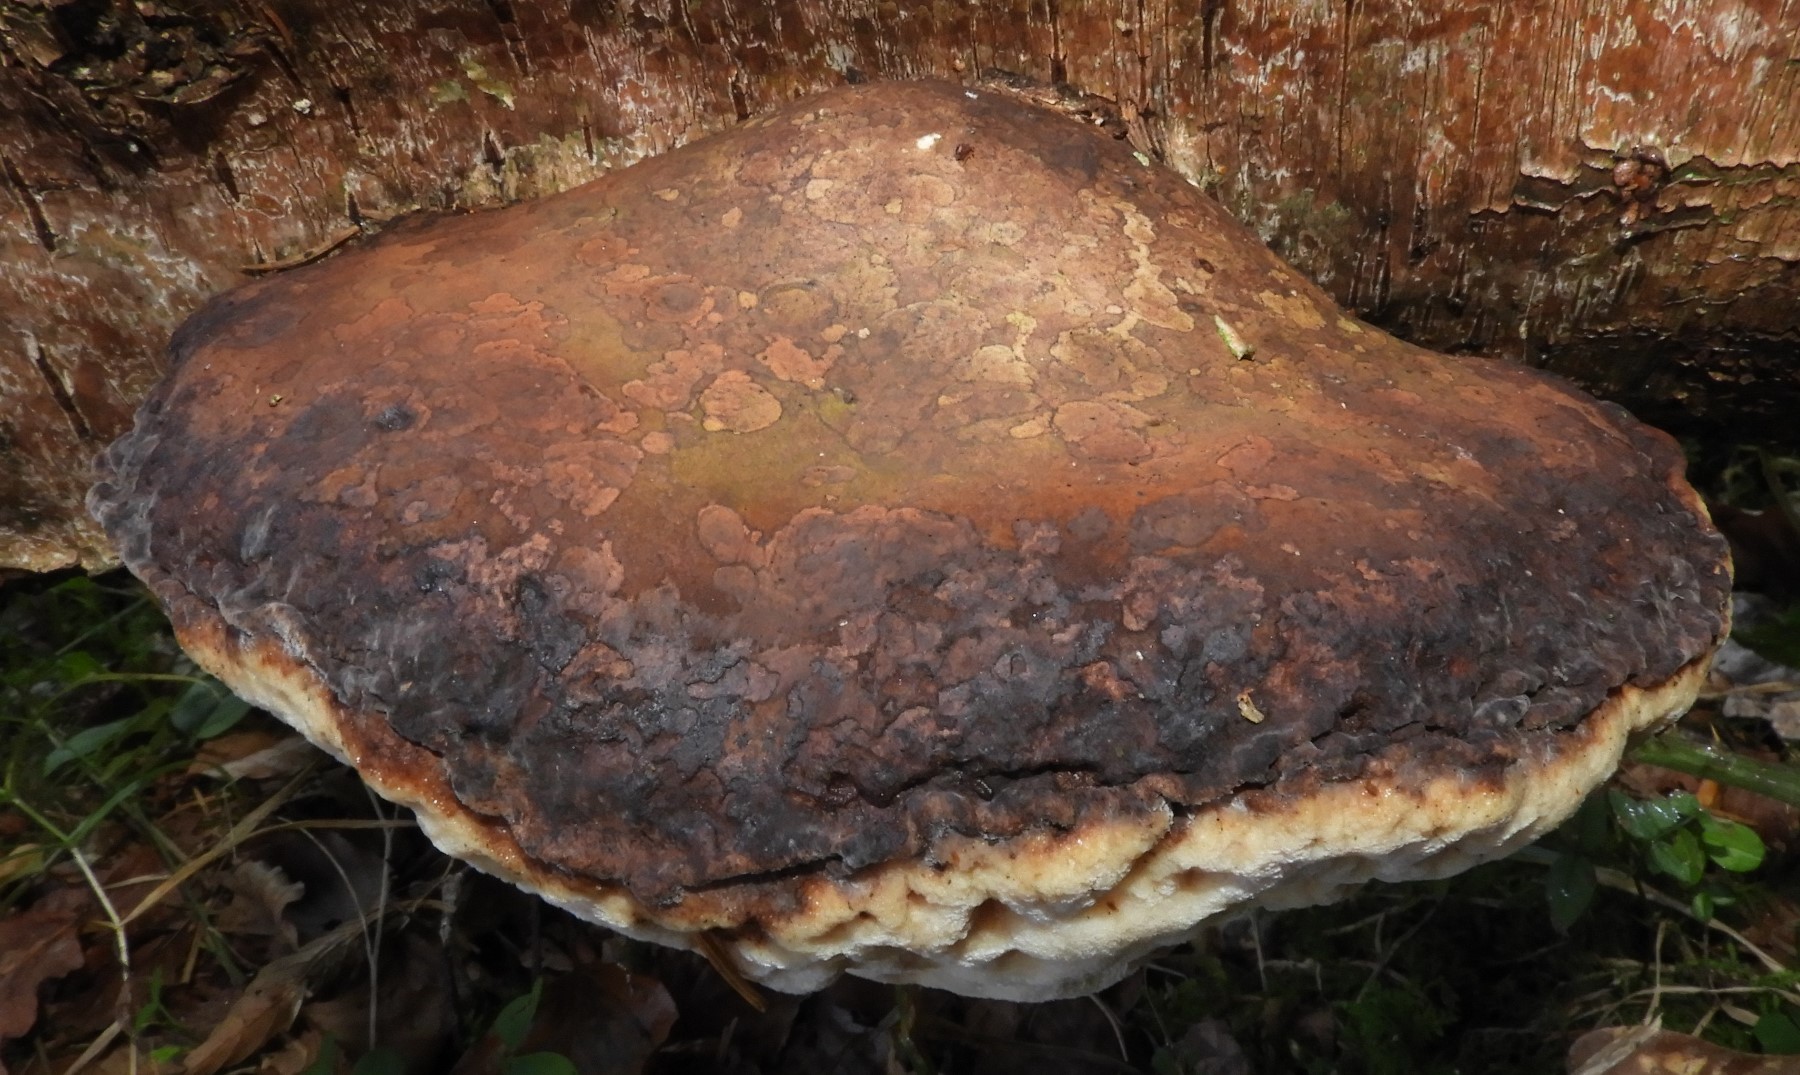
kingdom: Fungi
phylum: Basidiomycota
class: Agaricomycetes
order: Polyporales
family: Fomitopsidaceae
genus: Fomitopsis
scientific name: Fomitopsis betulina
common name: birkeporesvamp
